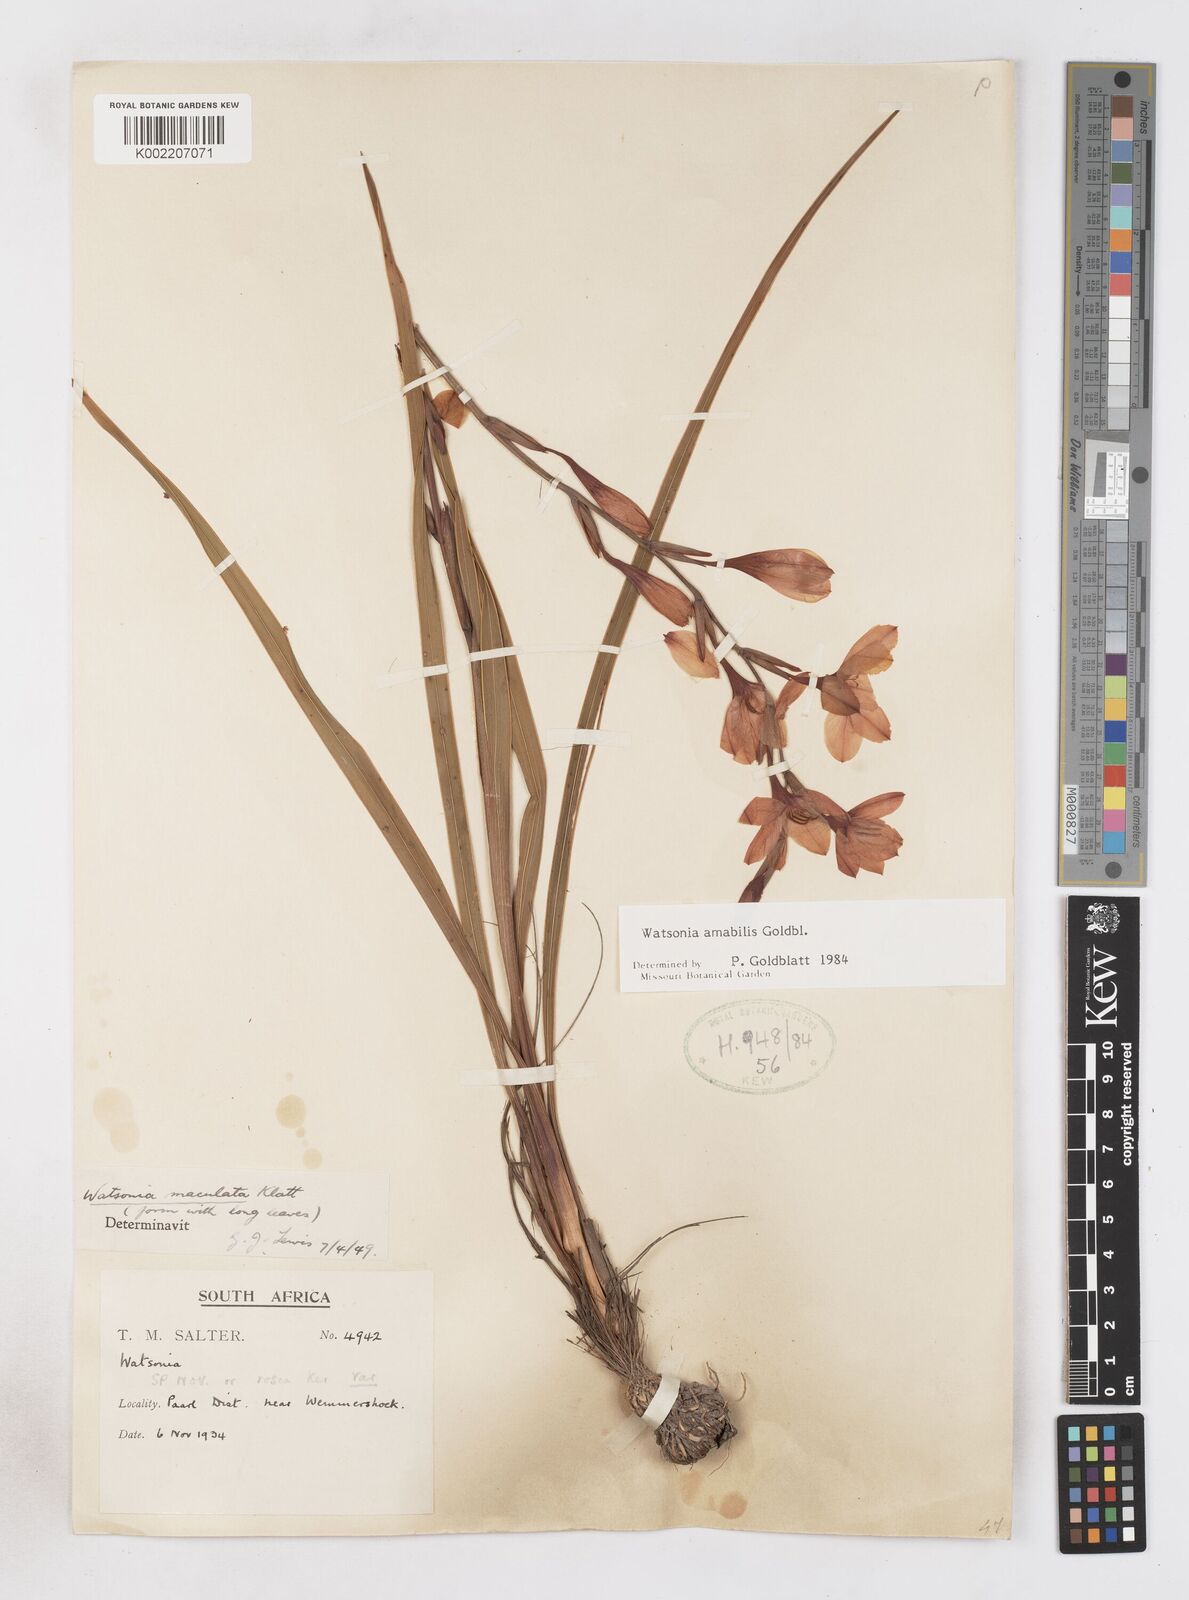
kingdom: Plantae
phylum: Tracheophyta
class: Liliopsida
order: Asparagales
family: Iridaceae
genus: Watsonia
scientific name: Watsonia amabilis
